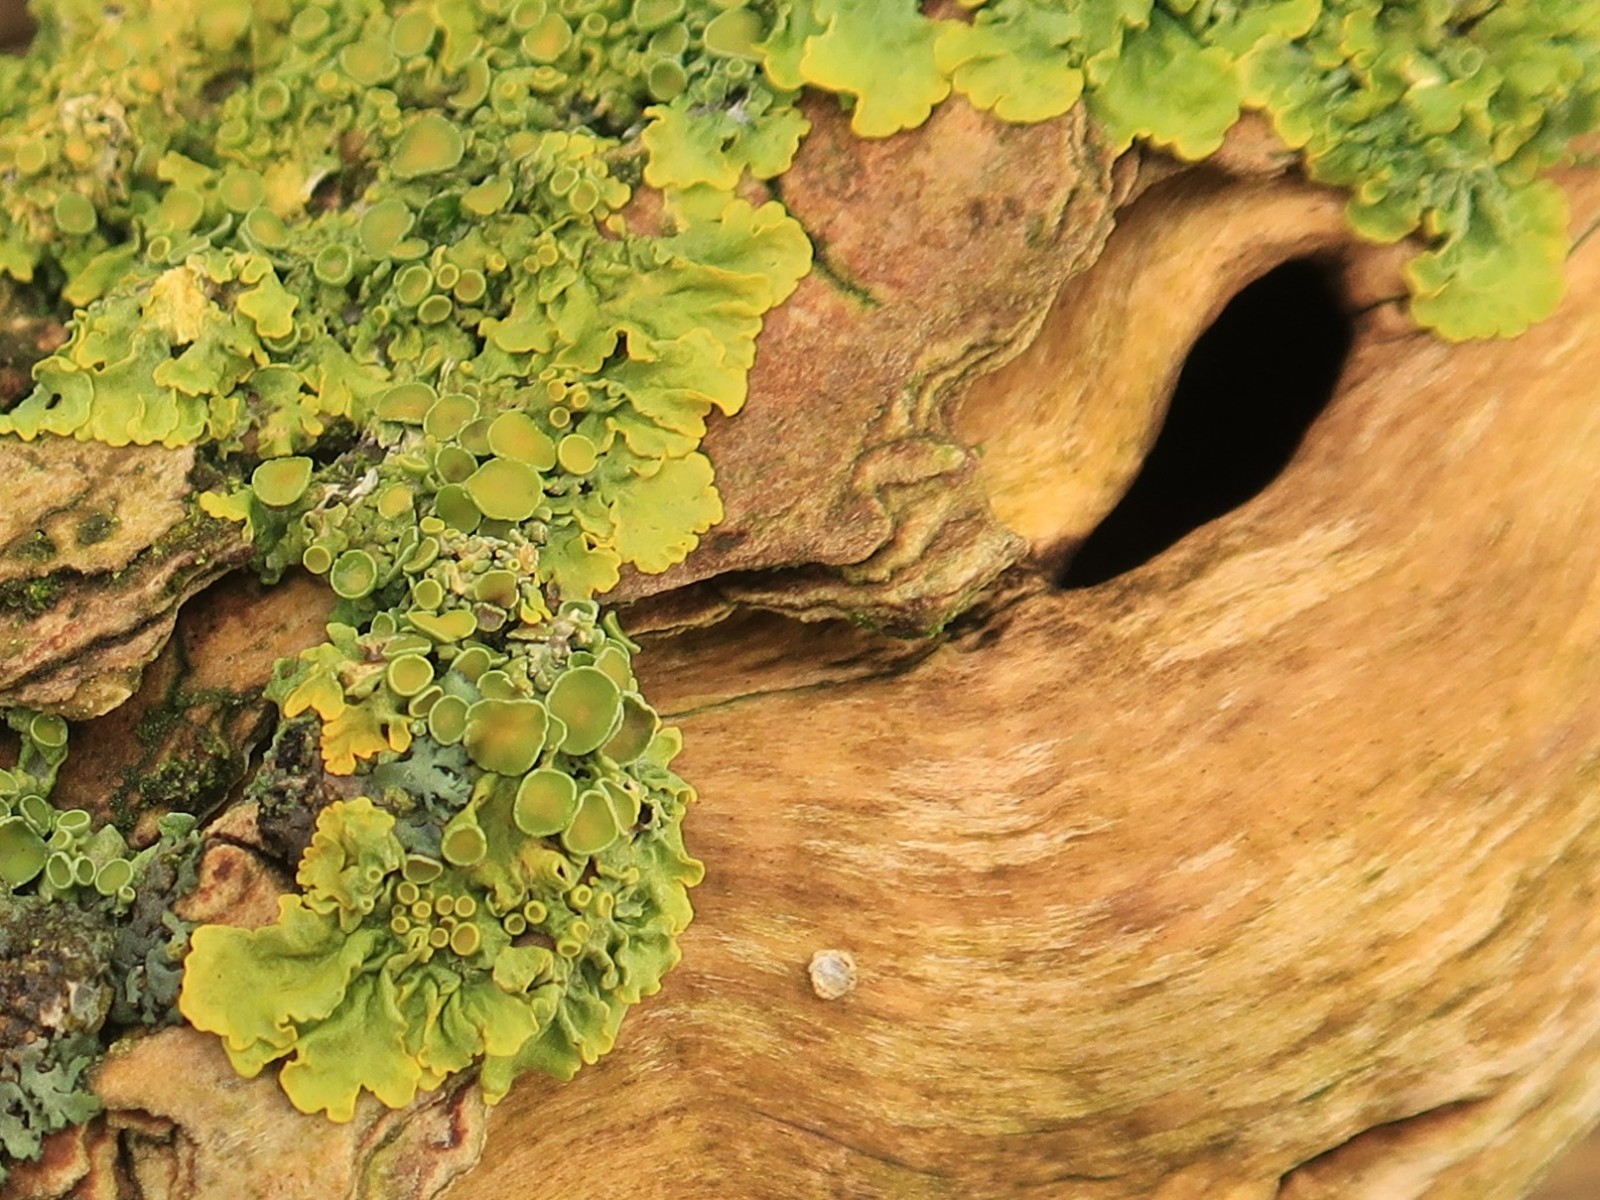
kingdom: Fungi
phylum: Ascomycota
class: Lecanoromycetes
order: Teloschistales
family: Teloschistaceae
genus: Xanthoria
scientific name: Xanthoria parietina
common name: almindelig væggelav
